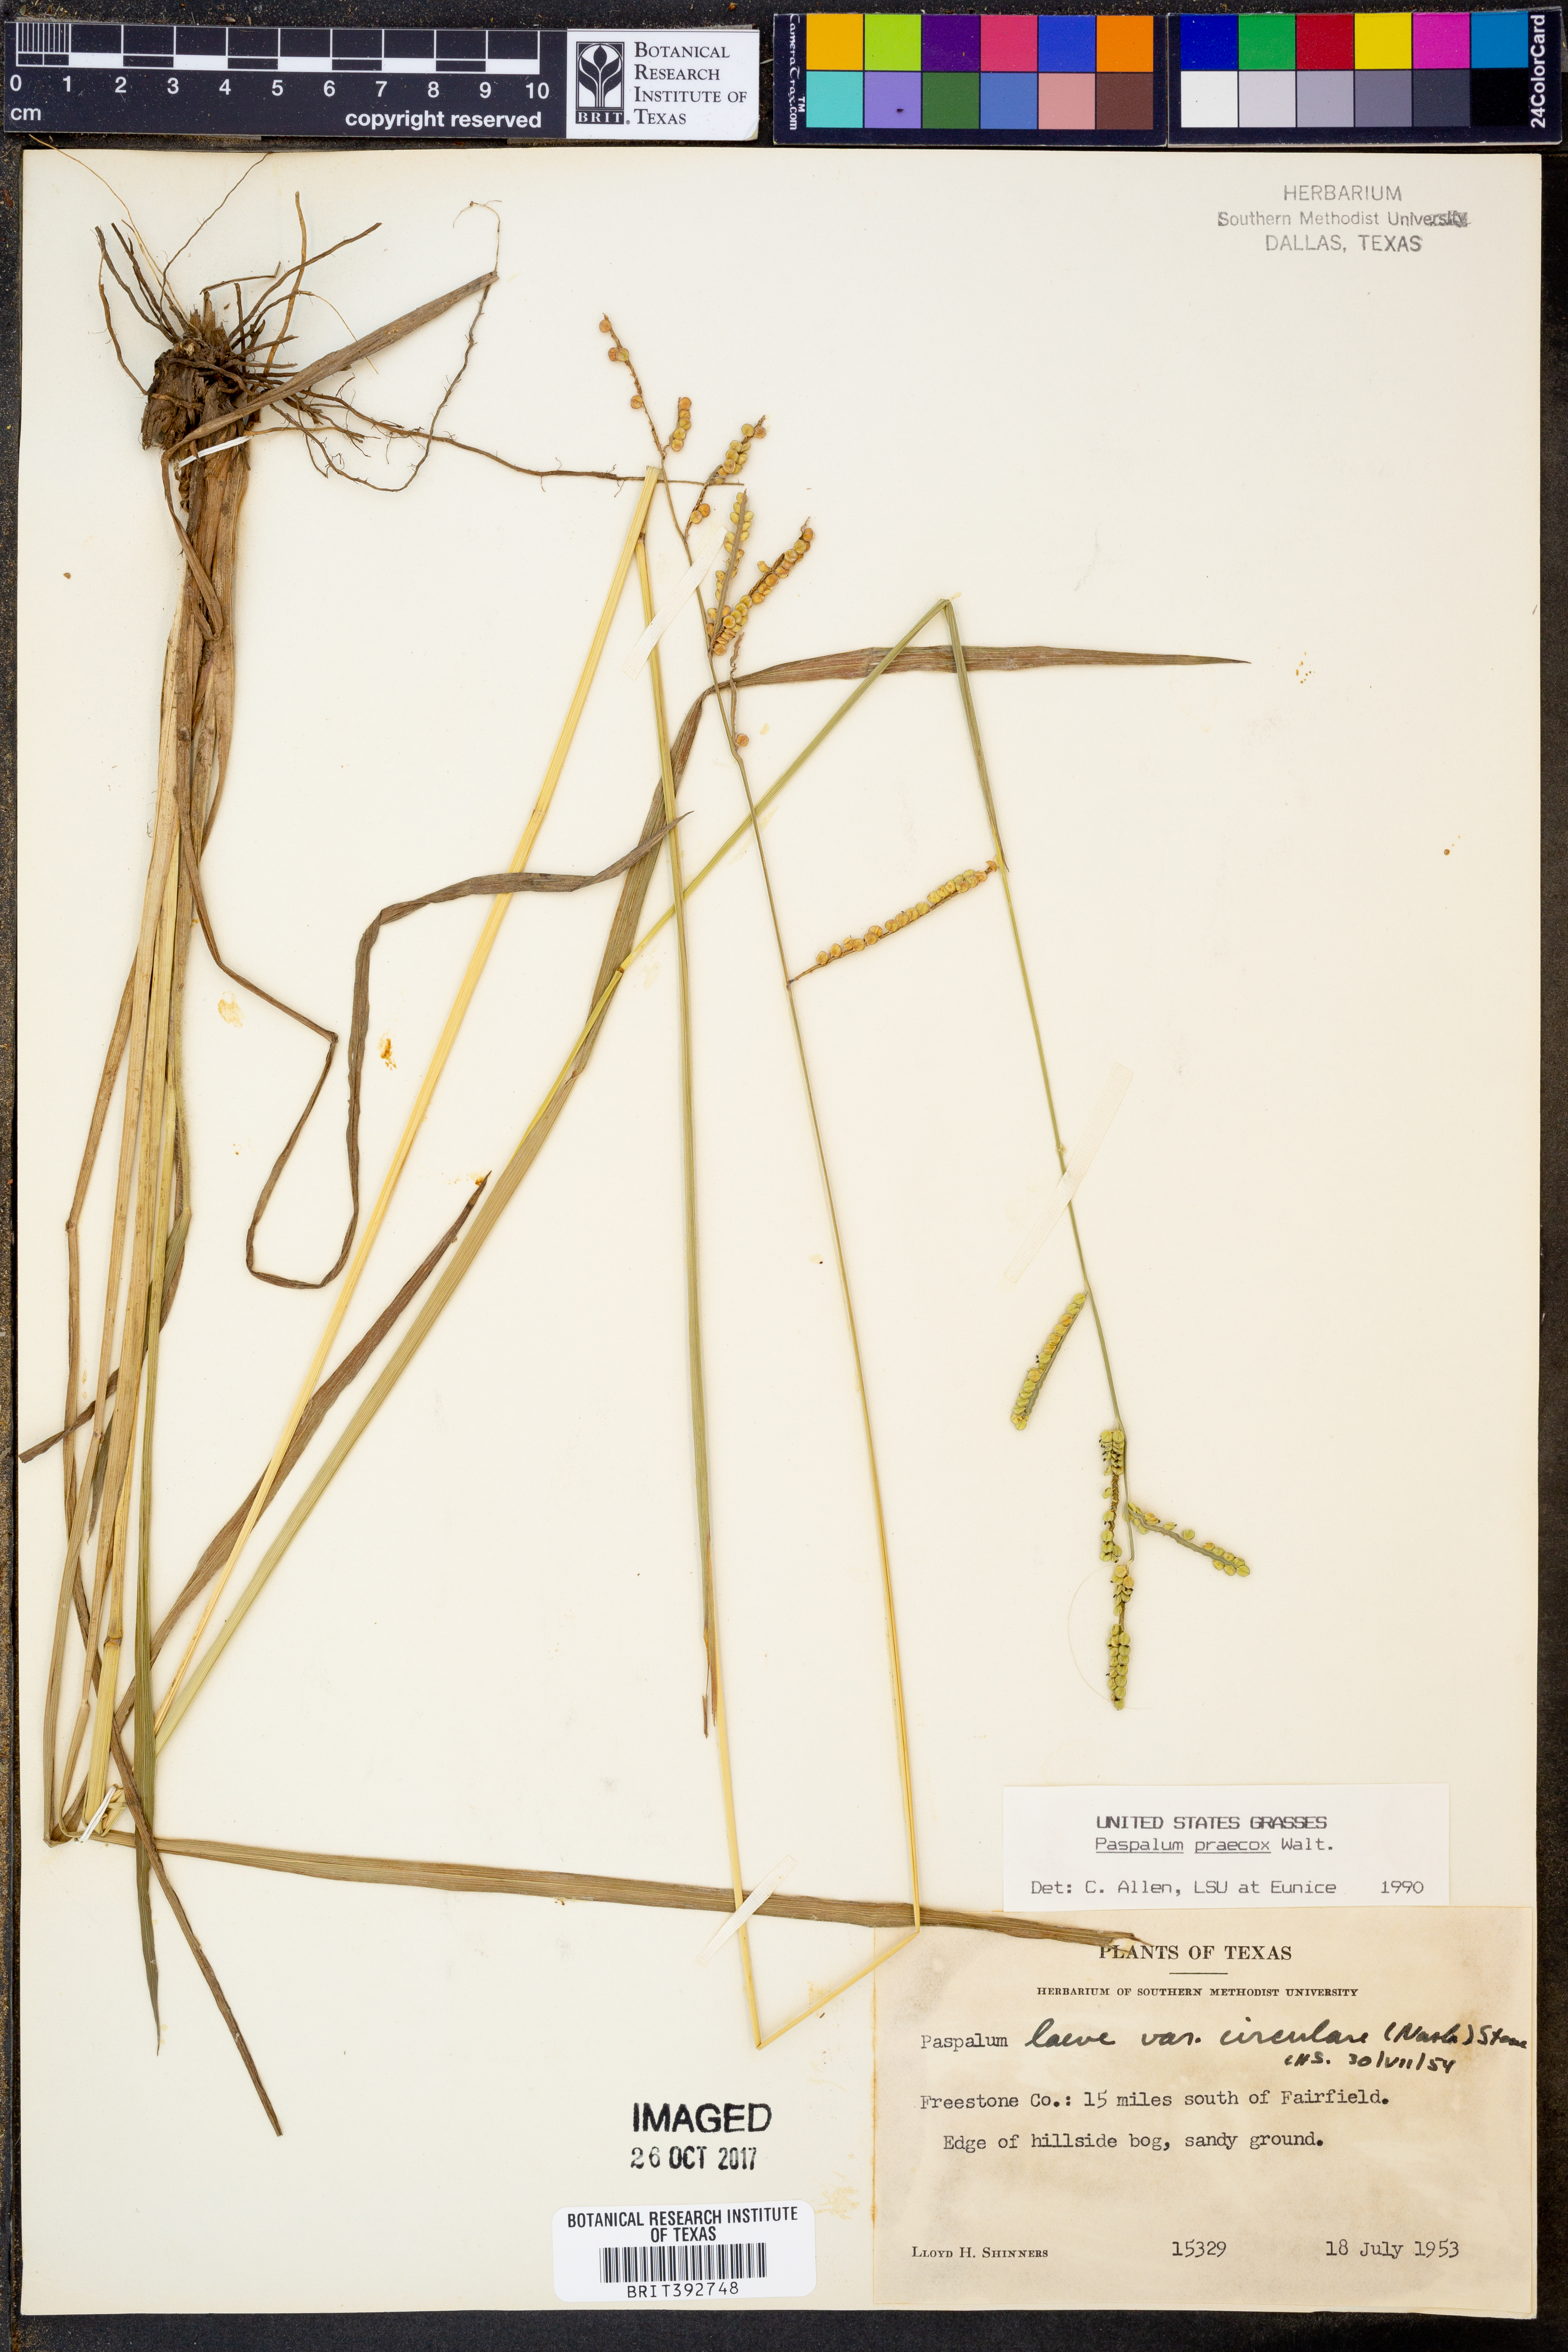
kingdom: Plantae
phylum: Tracheophyta
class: Liliopsida
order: Poales
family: Poaceae
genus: Paspalum
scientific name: Paspalum praecox
